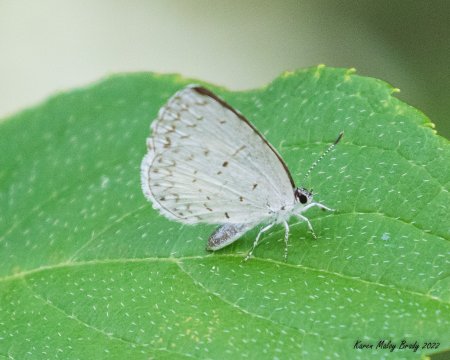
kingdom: Animalia
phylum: Arthropoda
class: Insecta
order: Lepidoptera
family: Lycaenidae
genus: Cyaniris
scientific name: Cyaniris neglecta
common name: Summer Azure
